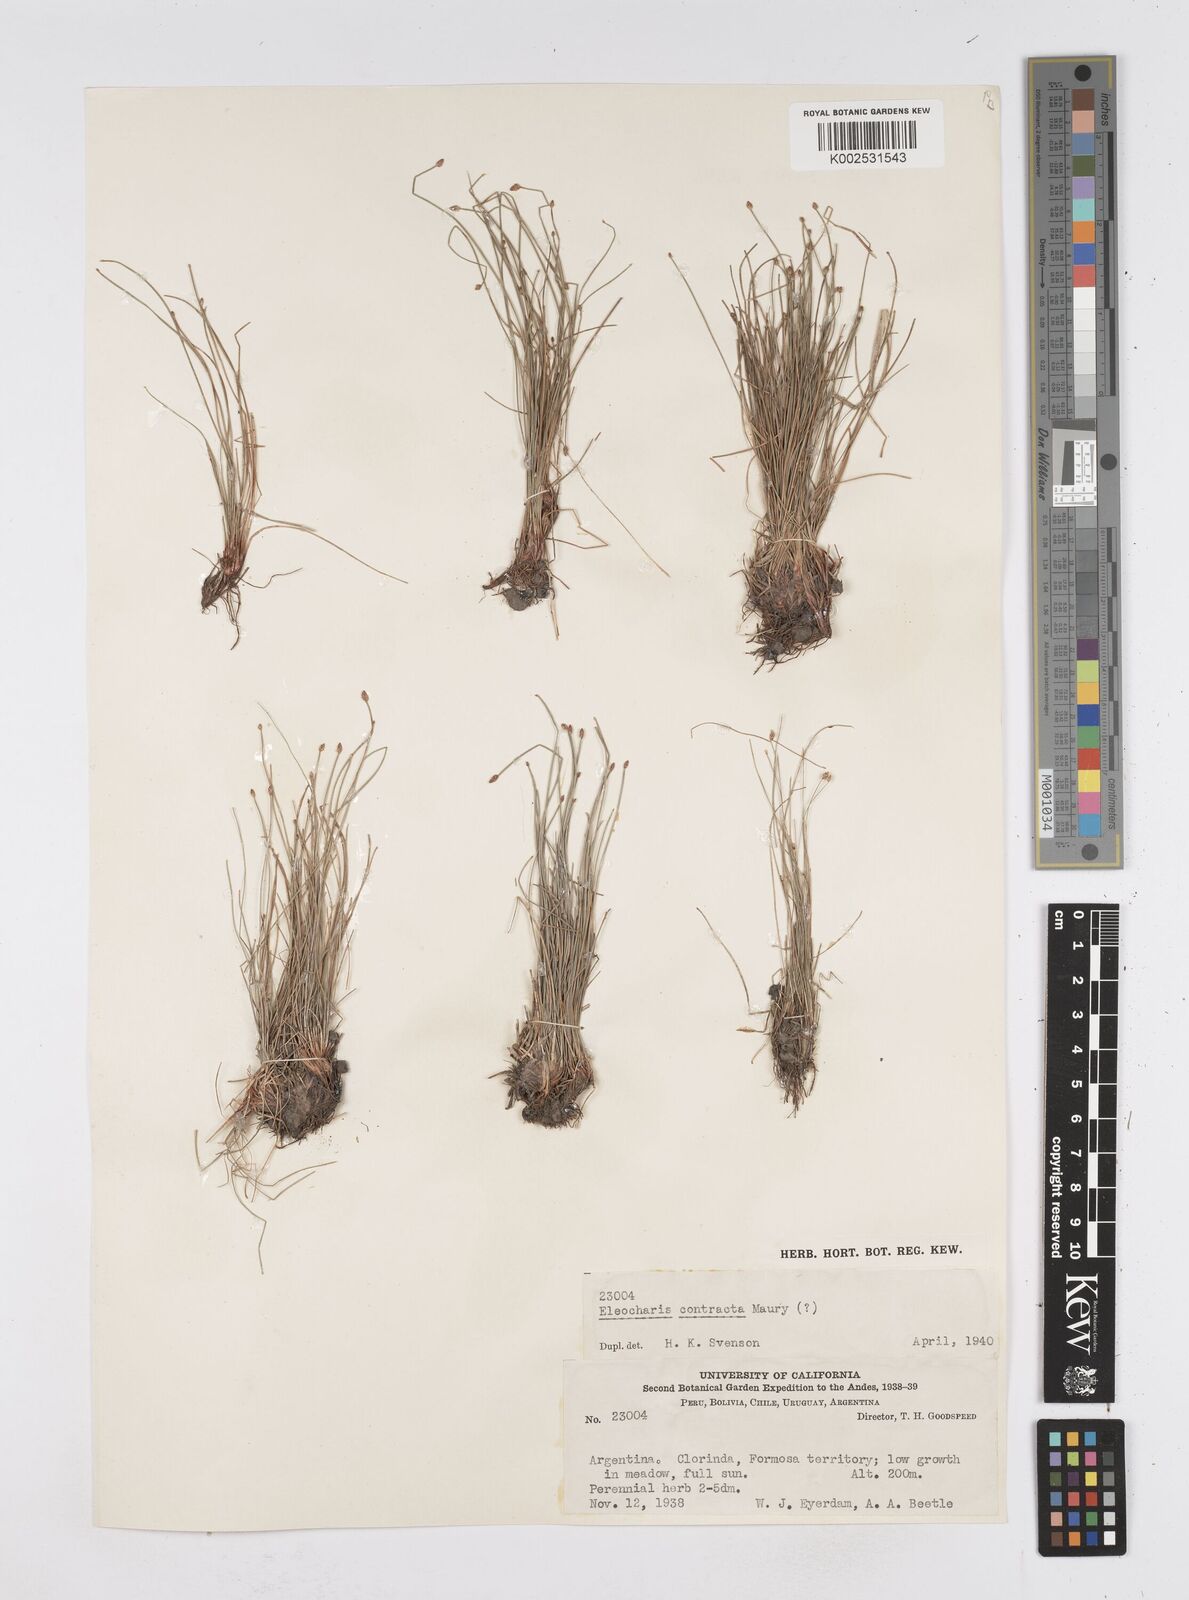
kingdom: Plantae
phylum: Tracheophyta
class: Liliopsida
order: Poales
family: Cyperaceae
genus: Eleocharis
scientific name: Eleocharis montana
